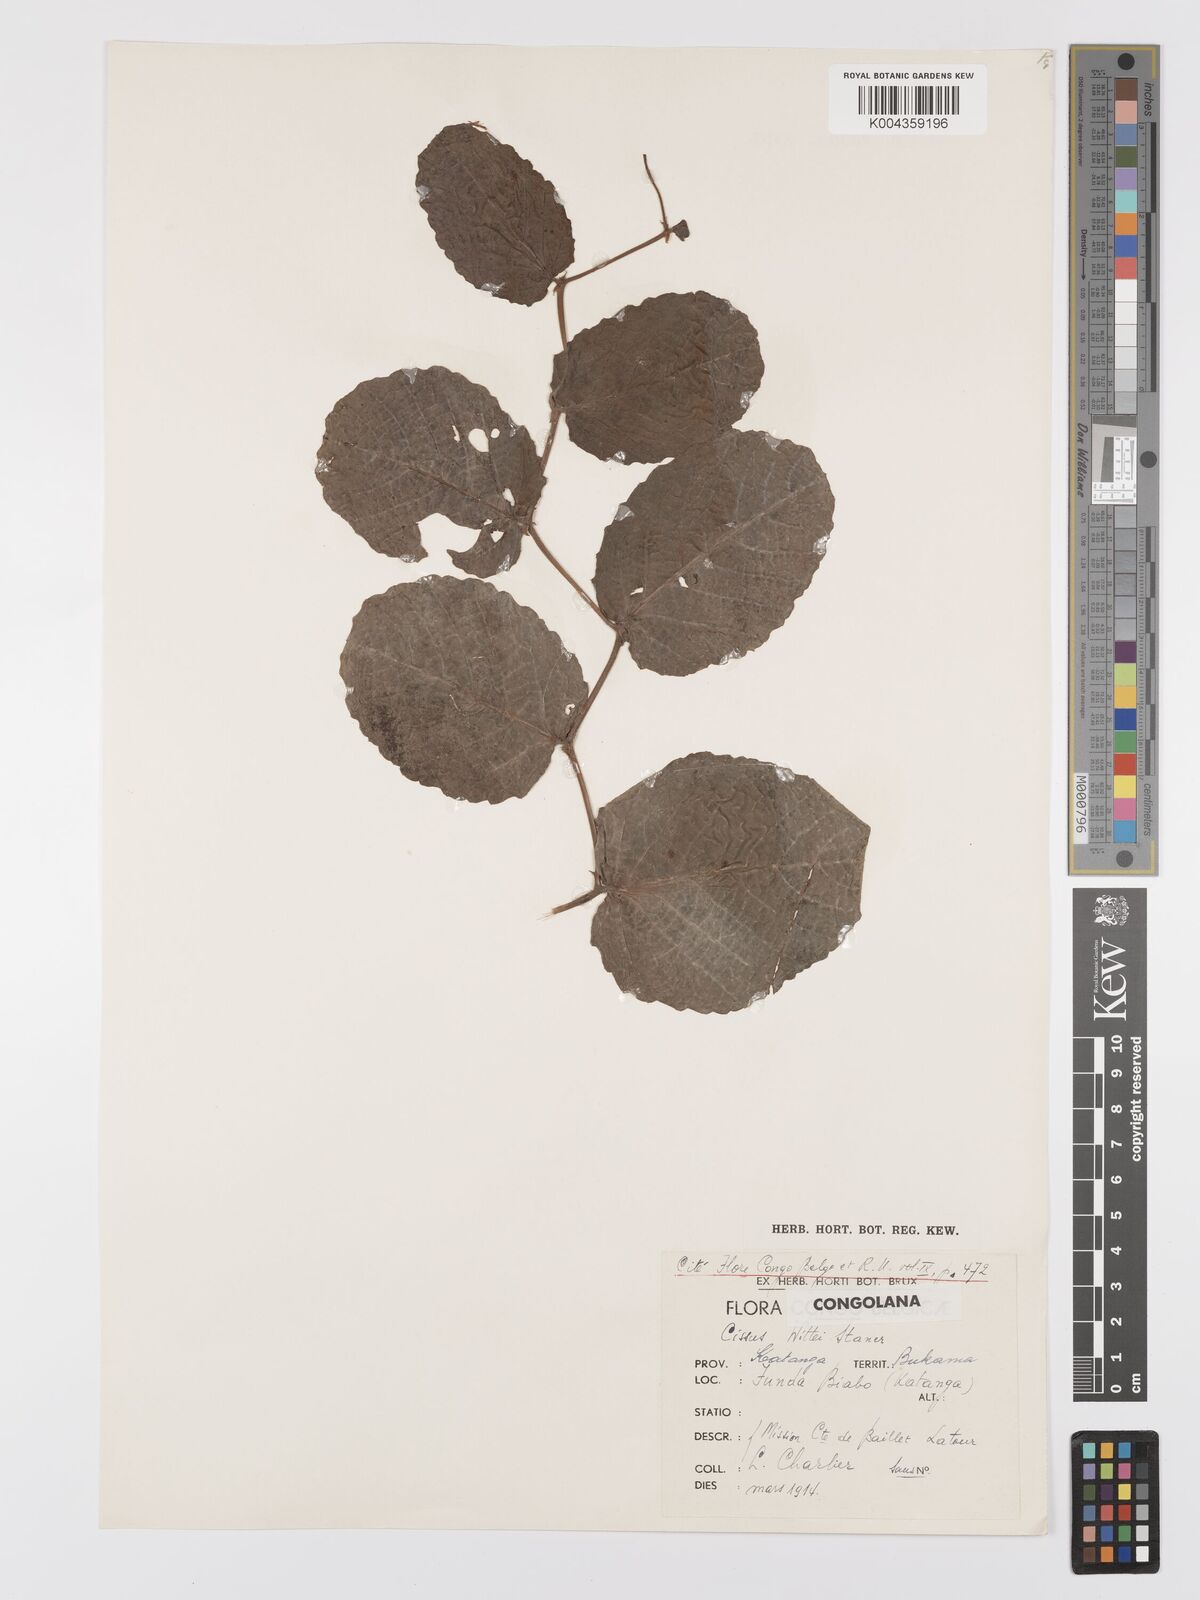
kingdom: Plantae
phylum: Tracheophyta
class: Magnoliopsida
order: Vitales
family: Vitaceae
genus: Cyphostemma
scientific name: Cyphostemma wittei
